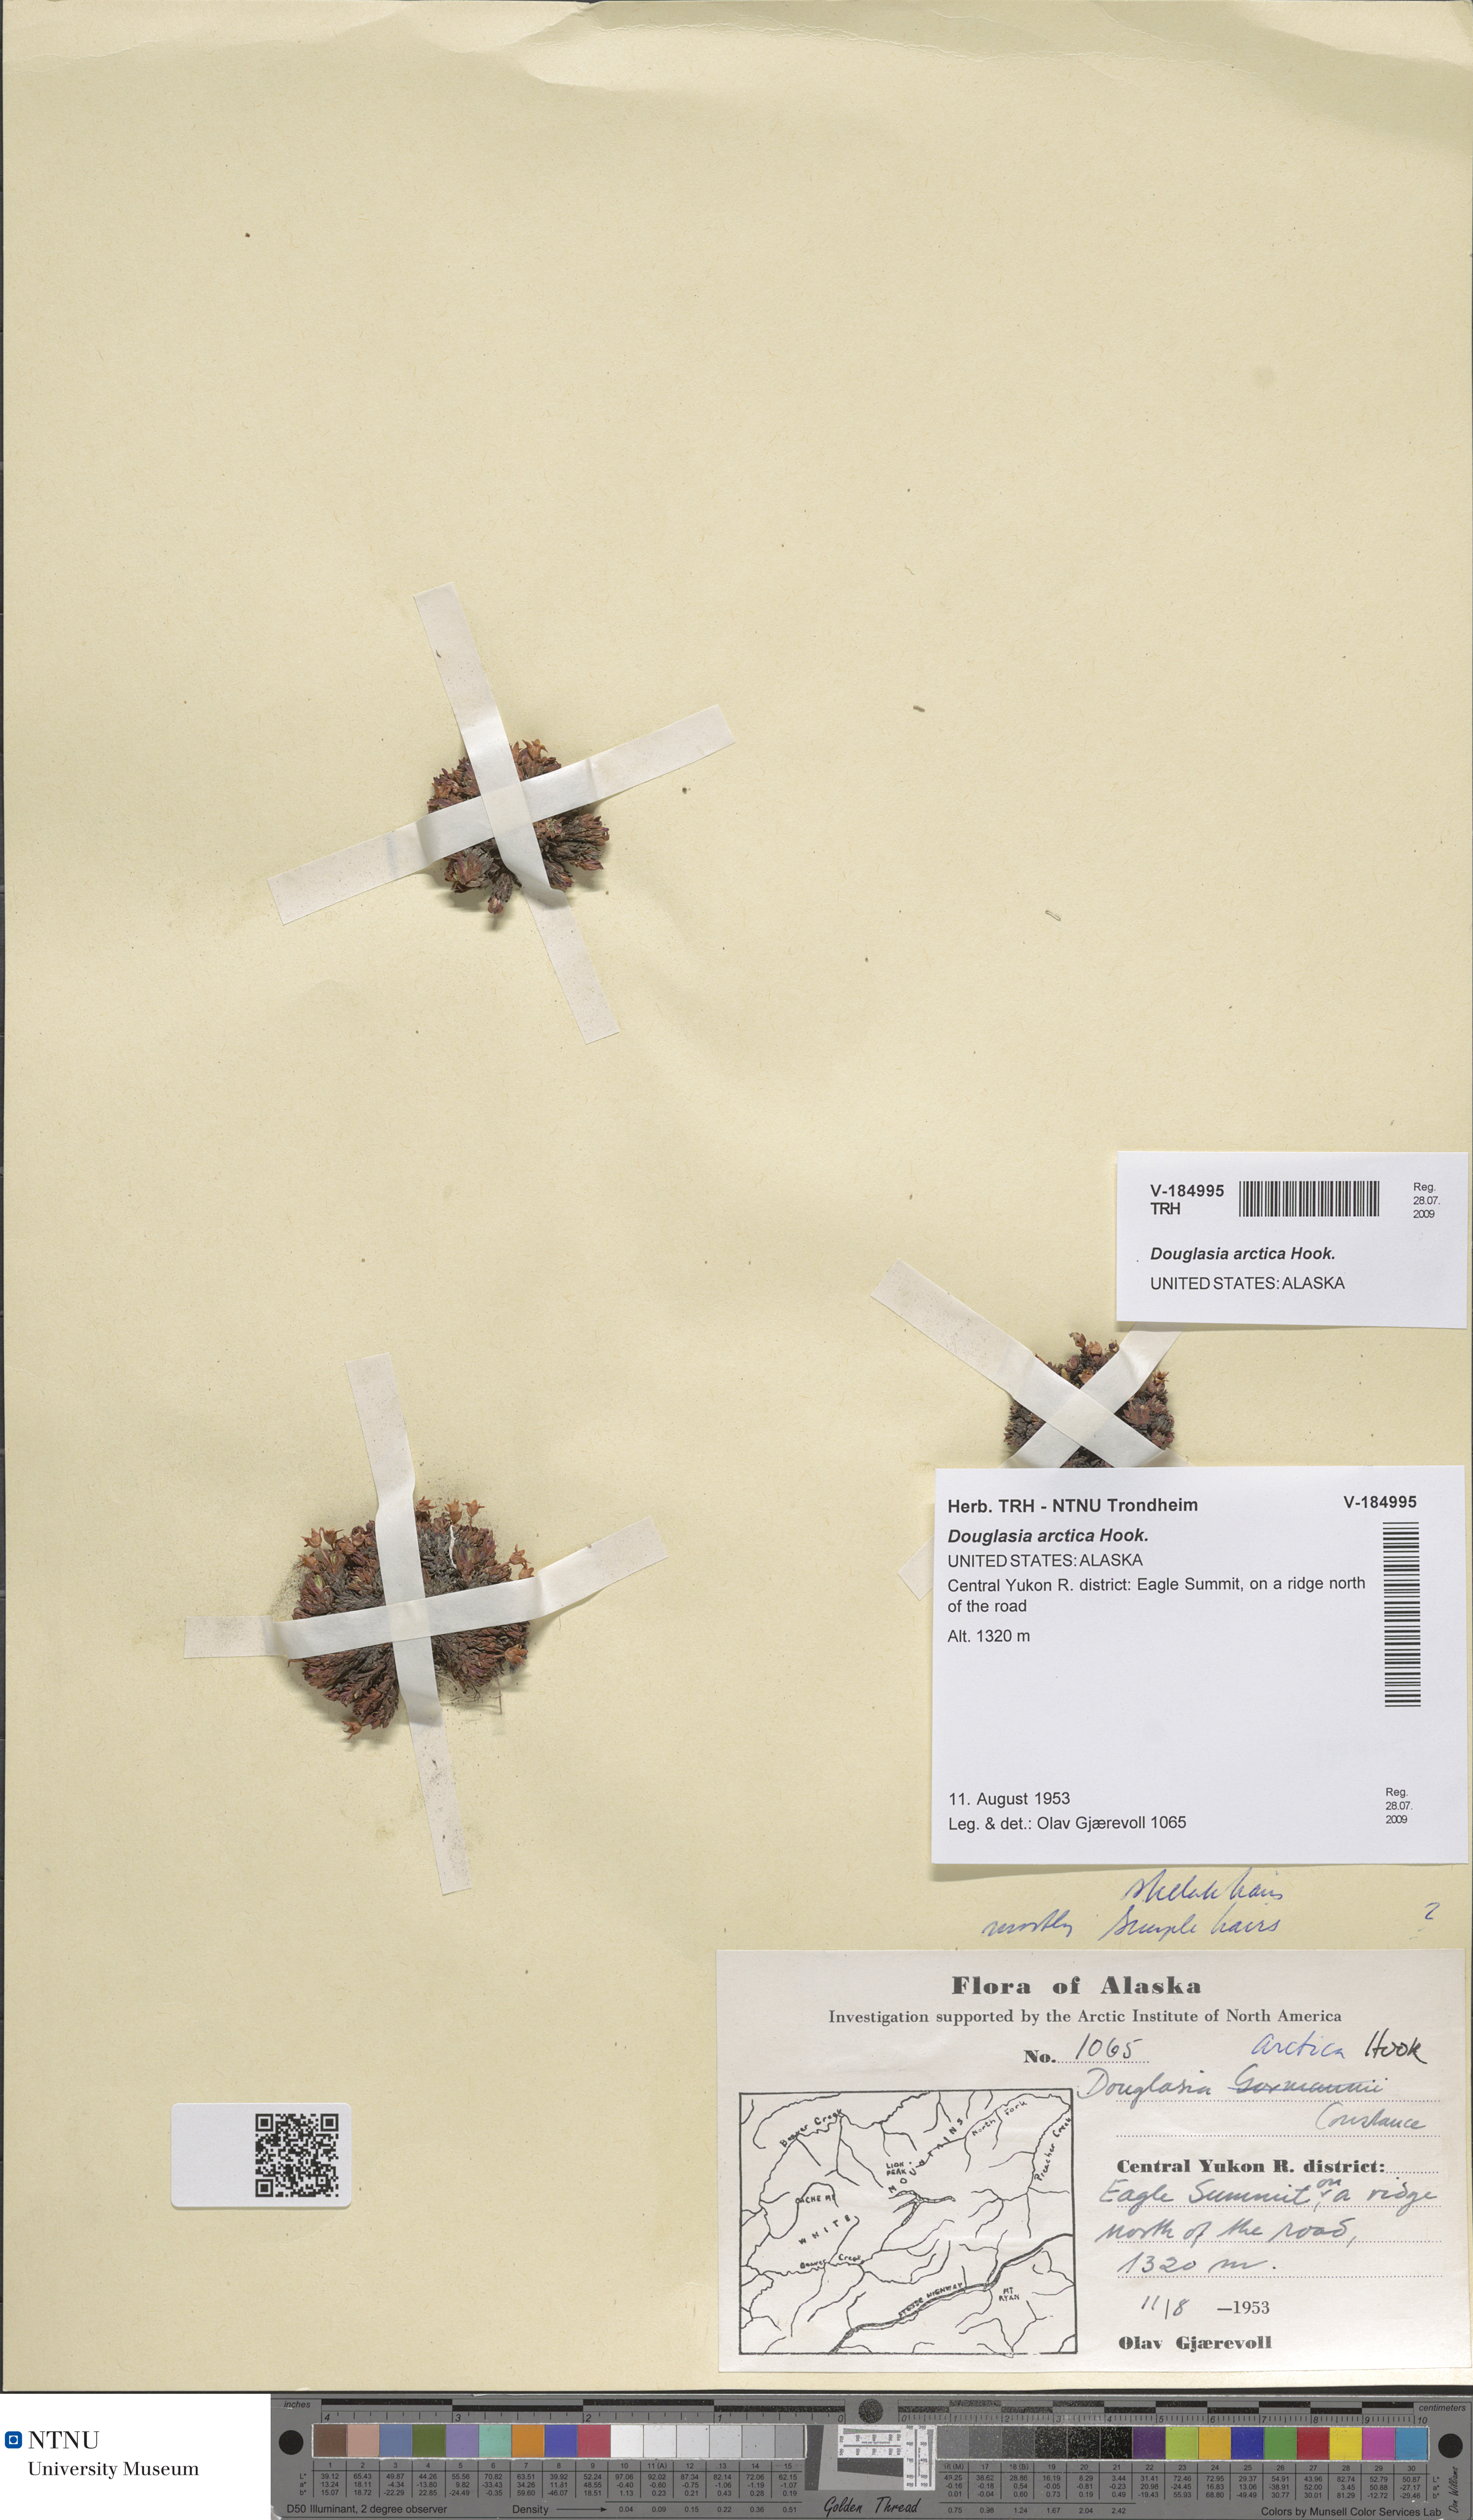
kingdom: Plantae
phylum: Tracheophyta
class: Magnoliopsida
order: Ericales
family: Primulaceae
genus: Androsace
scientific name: Androsace americana
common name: Mackenzie river dwarf-primrose
